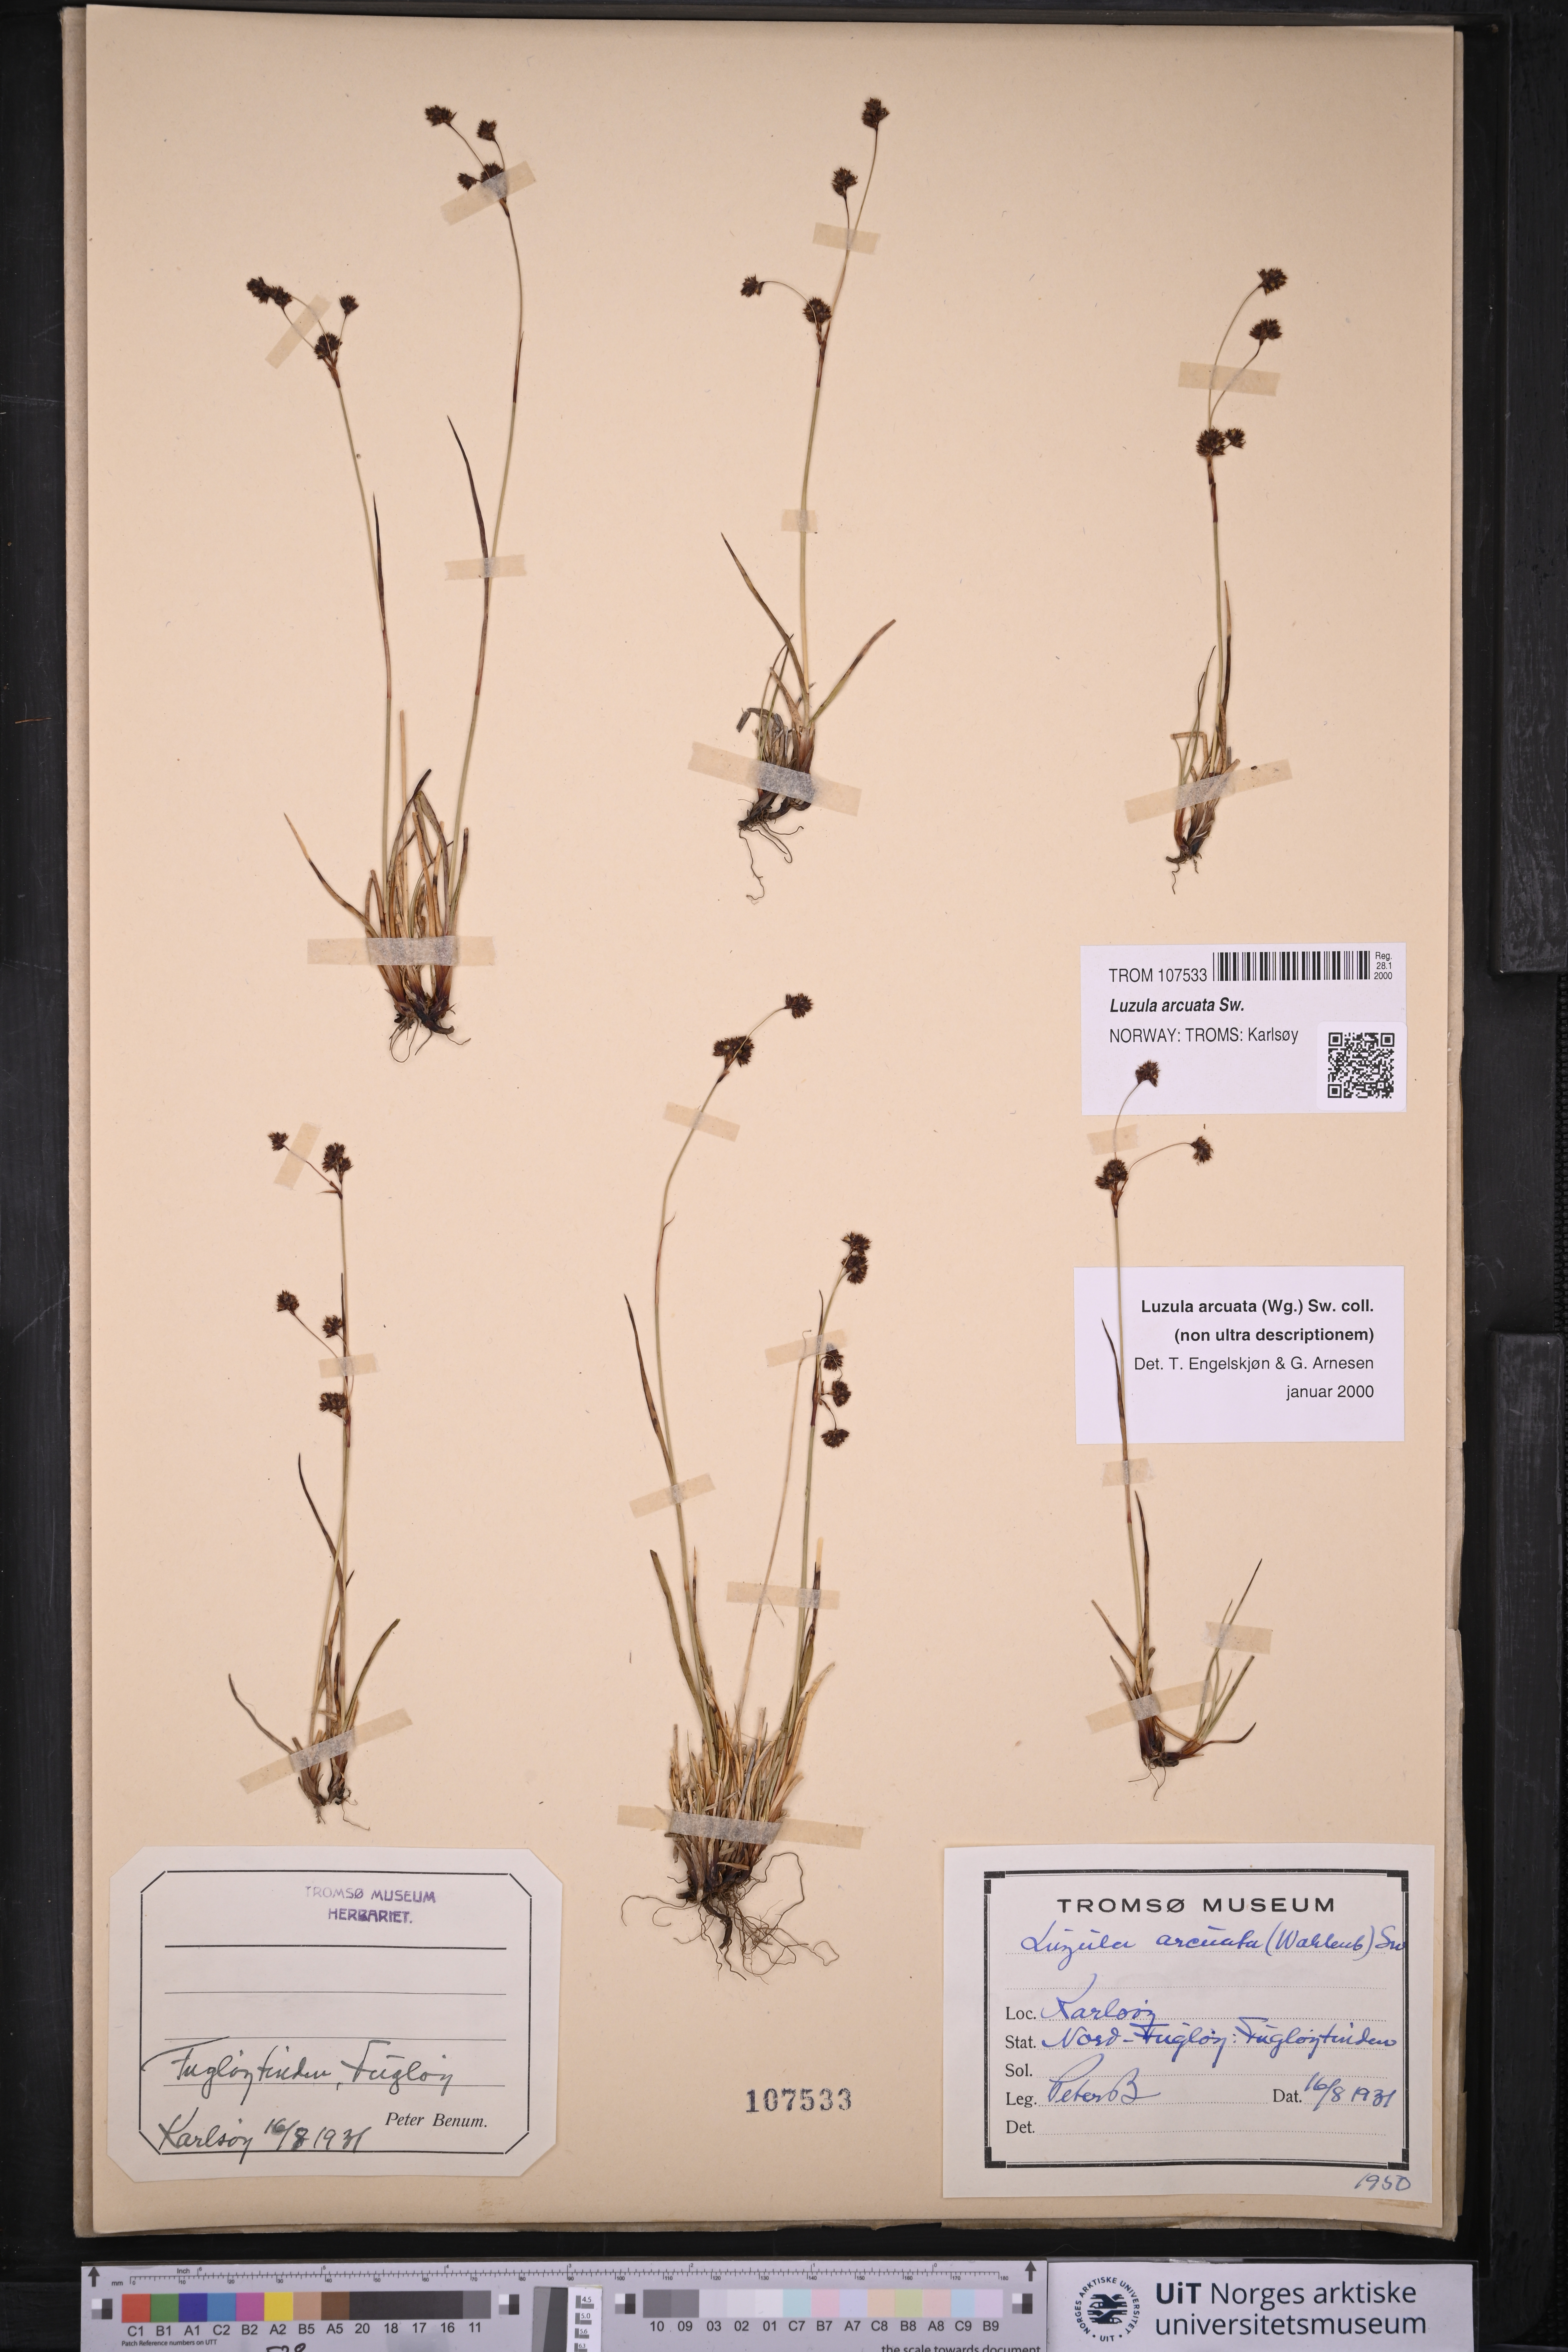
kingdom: Plantae
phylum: Tracheophyta
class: Liliopsida
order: Poales
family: Juncaceae
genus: Luzula
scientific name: Luzula arcuata
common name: Curved wood-rush
